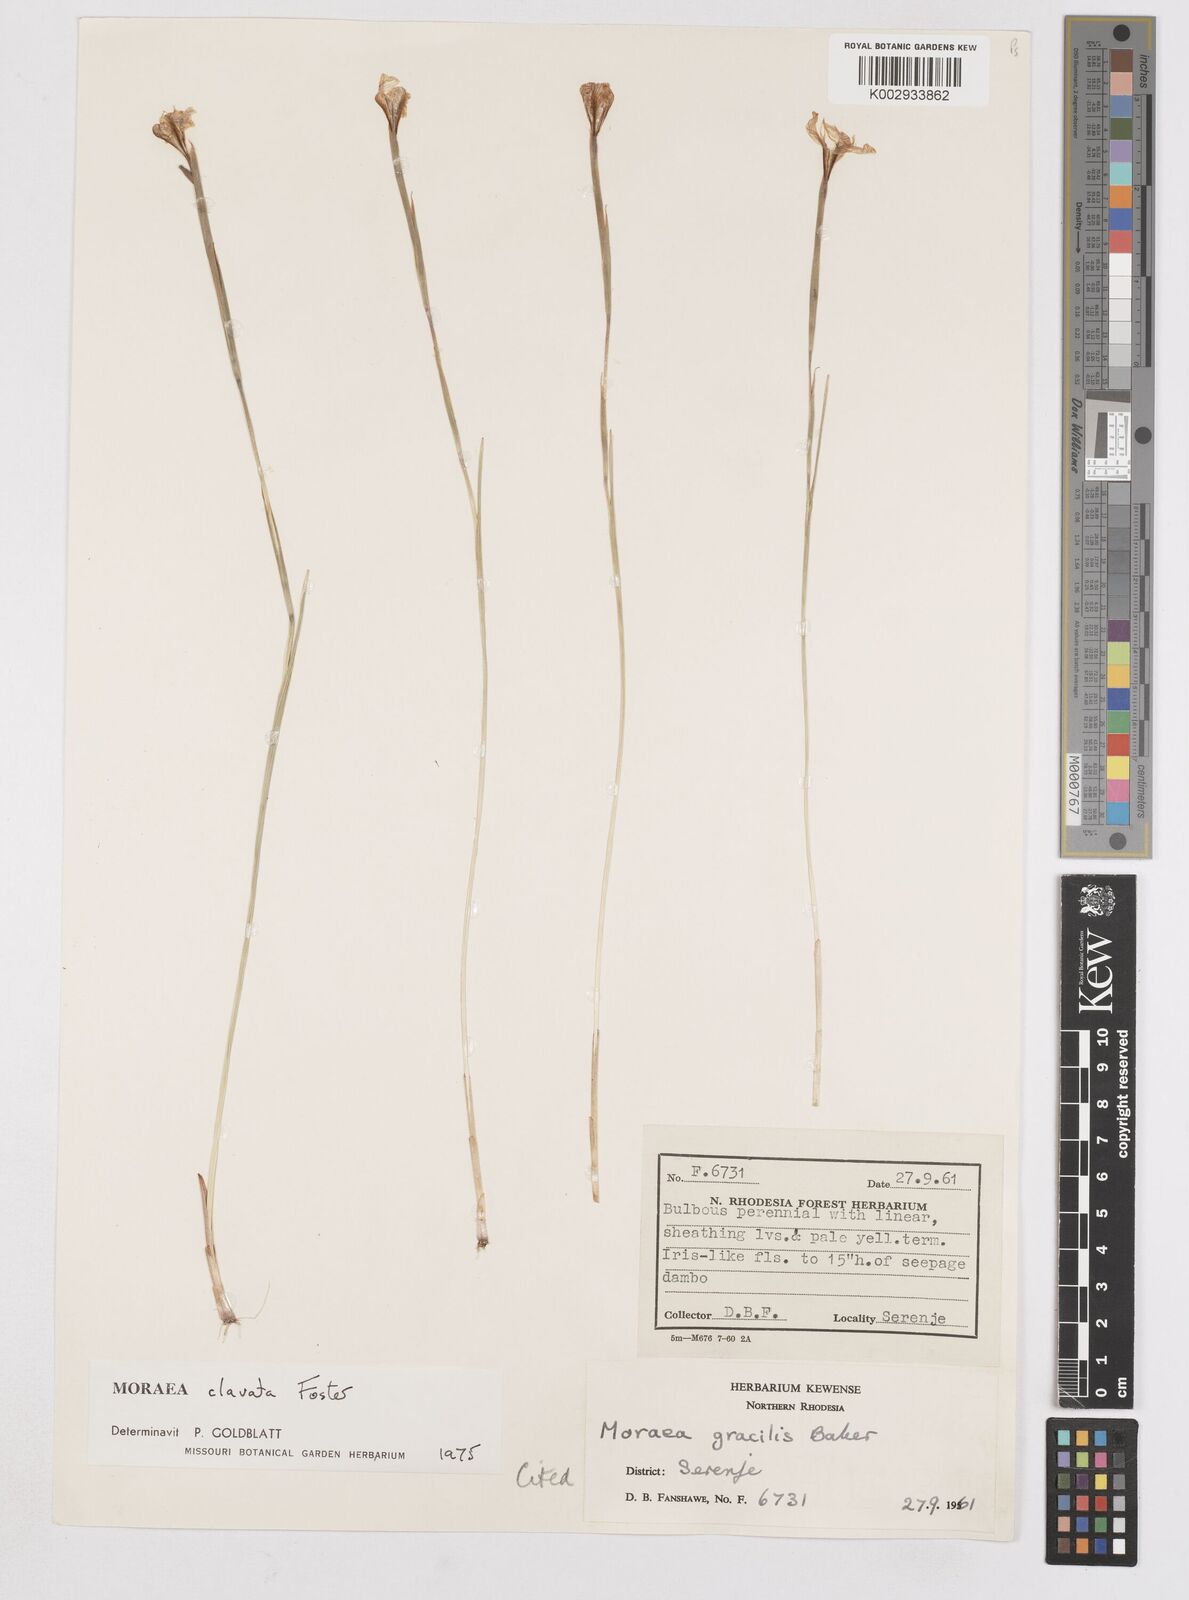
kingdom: Plantae
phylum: Tracheophyta
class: Liliopsida
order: Asparagales
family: Iridaceae
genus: Moraea
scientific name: Moraea clavata
